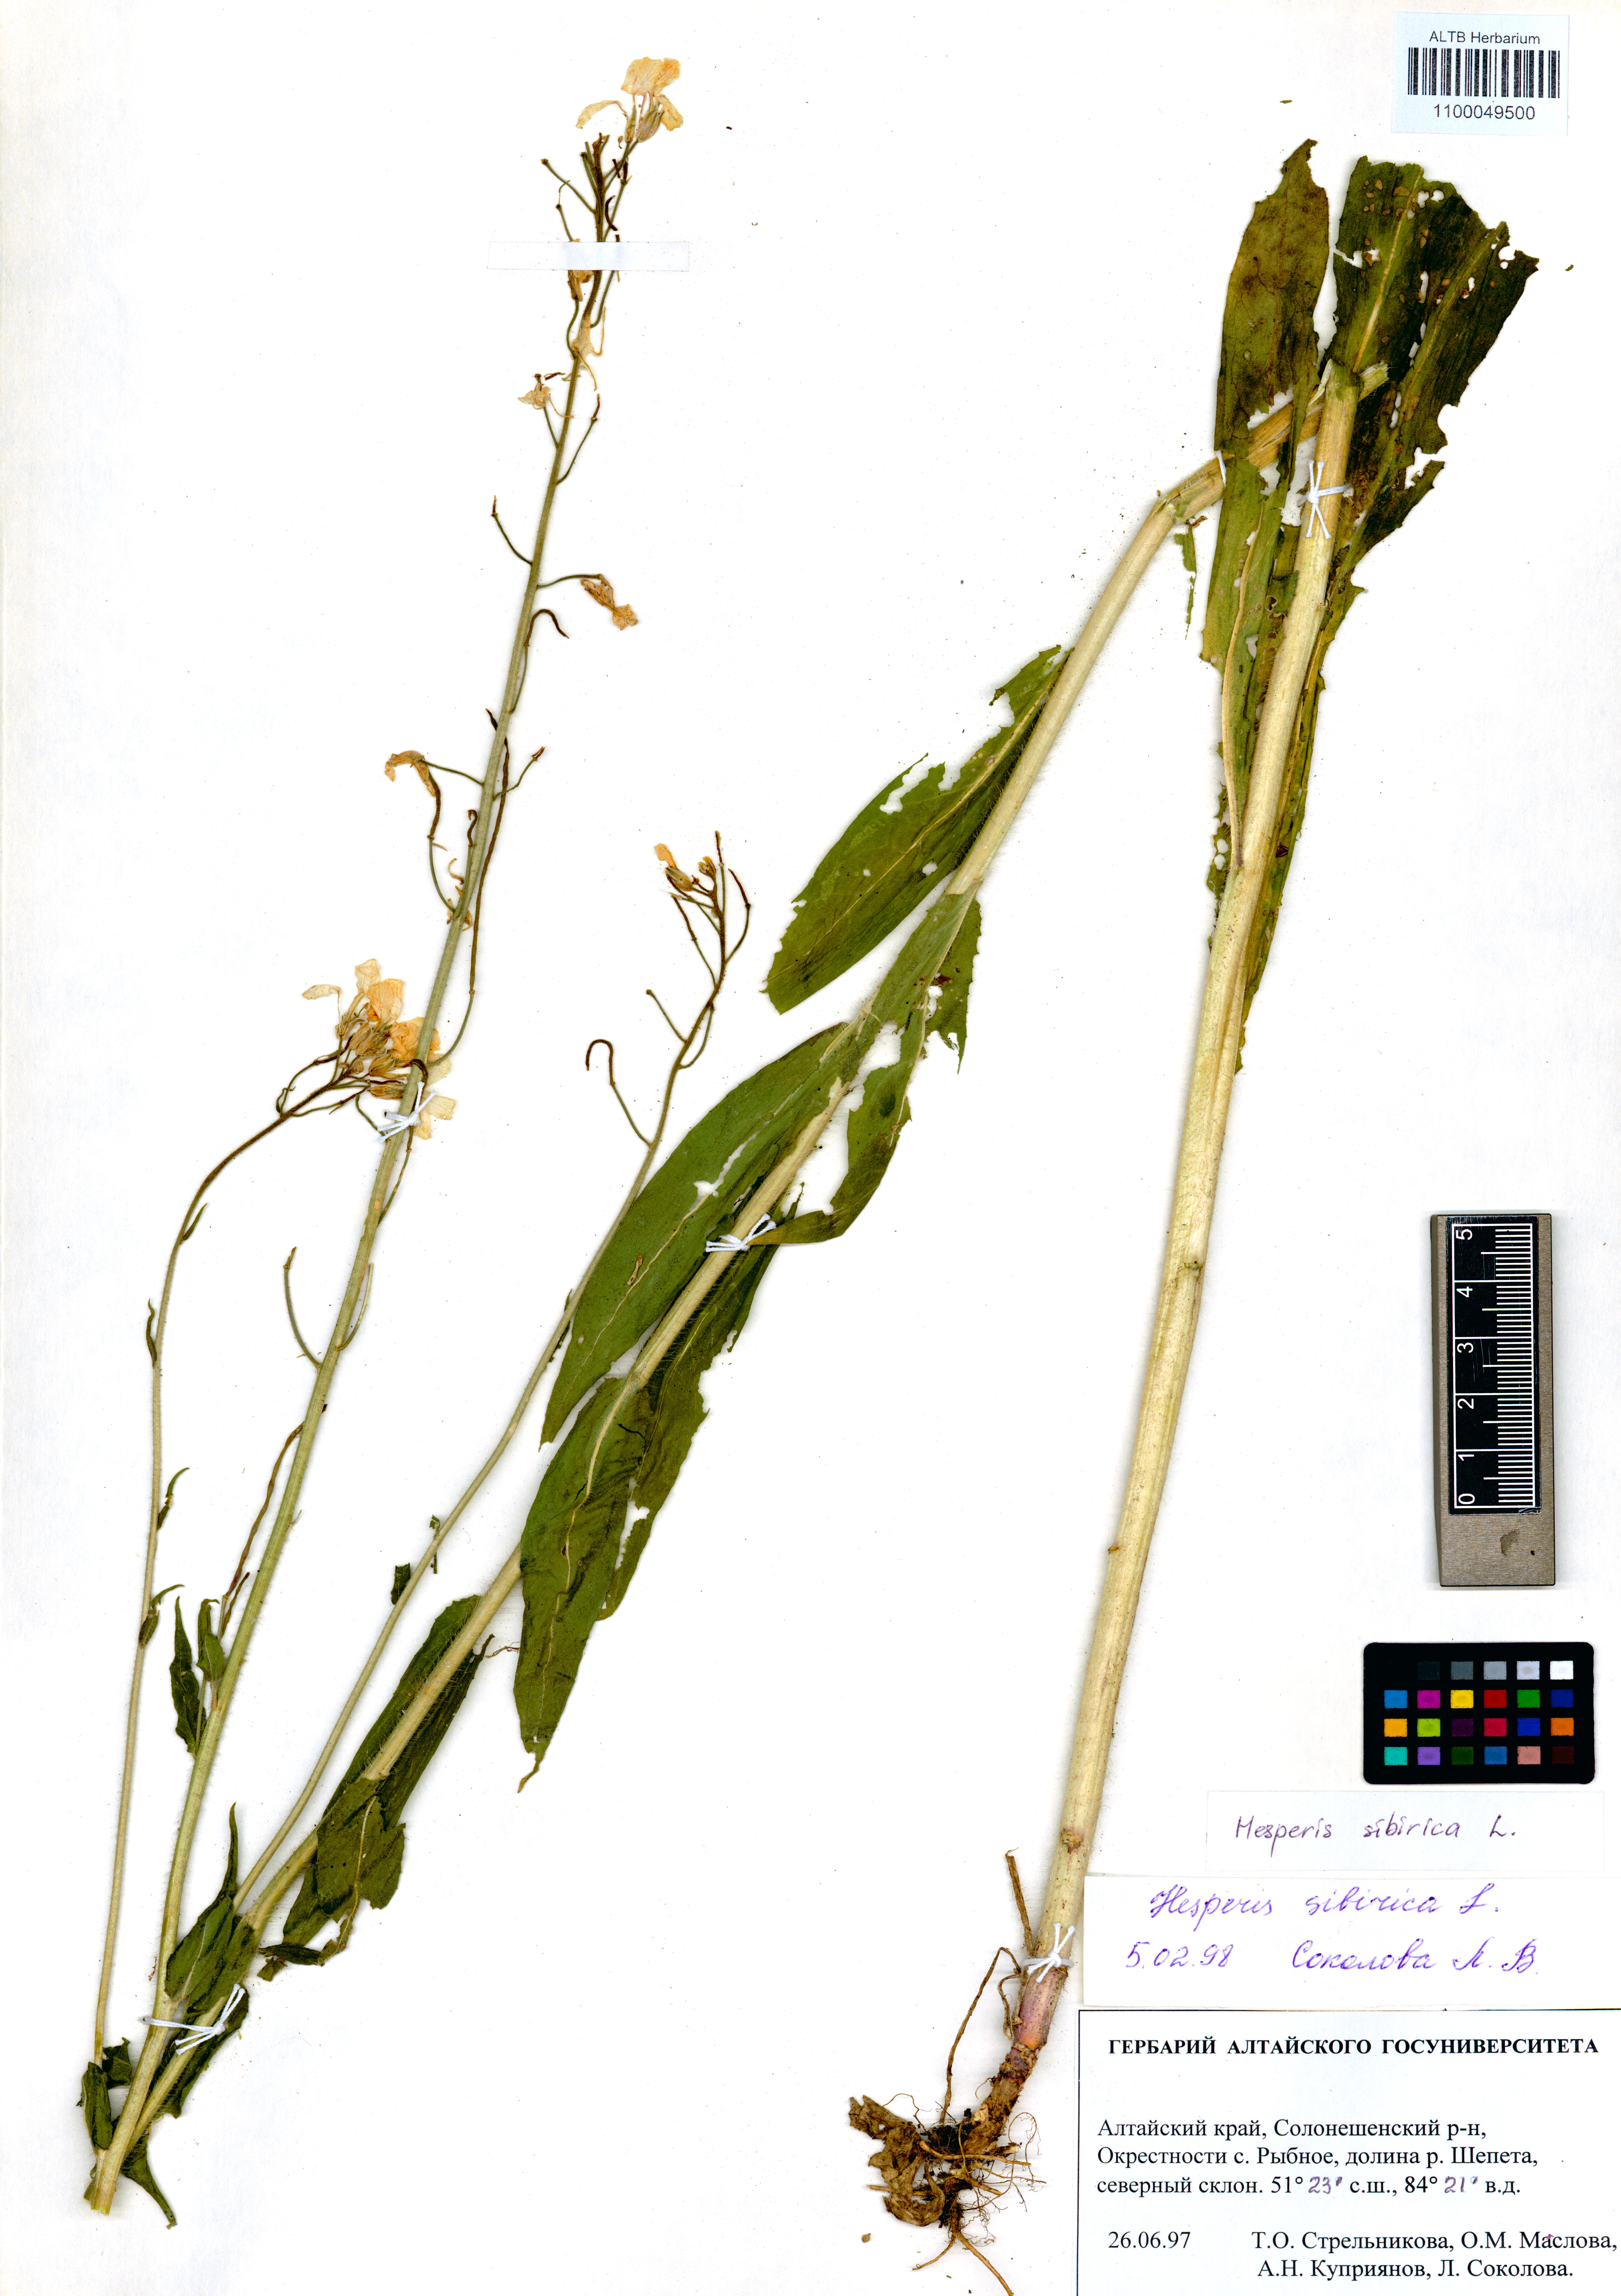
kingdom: Plantae
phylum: Tracheophyta
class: Magnoliopsida
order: Brassicales
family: Brassicaceae
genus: Hesperis
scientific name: Hesperis sibirica
